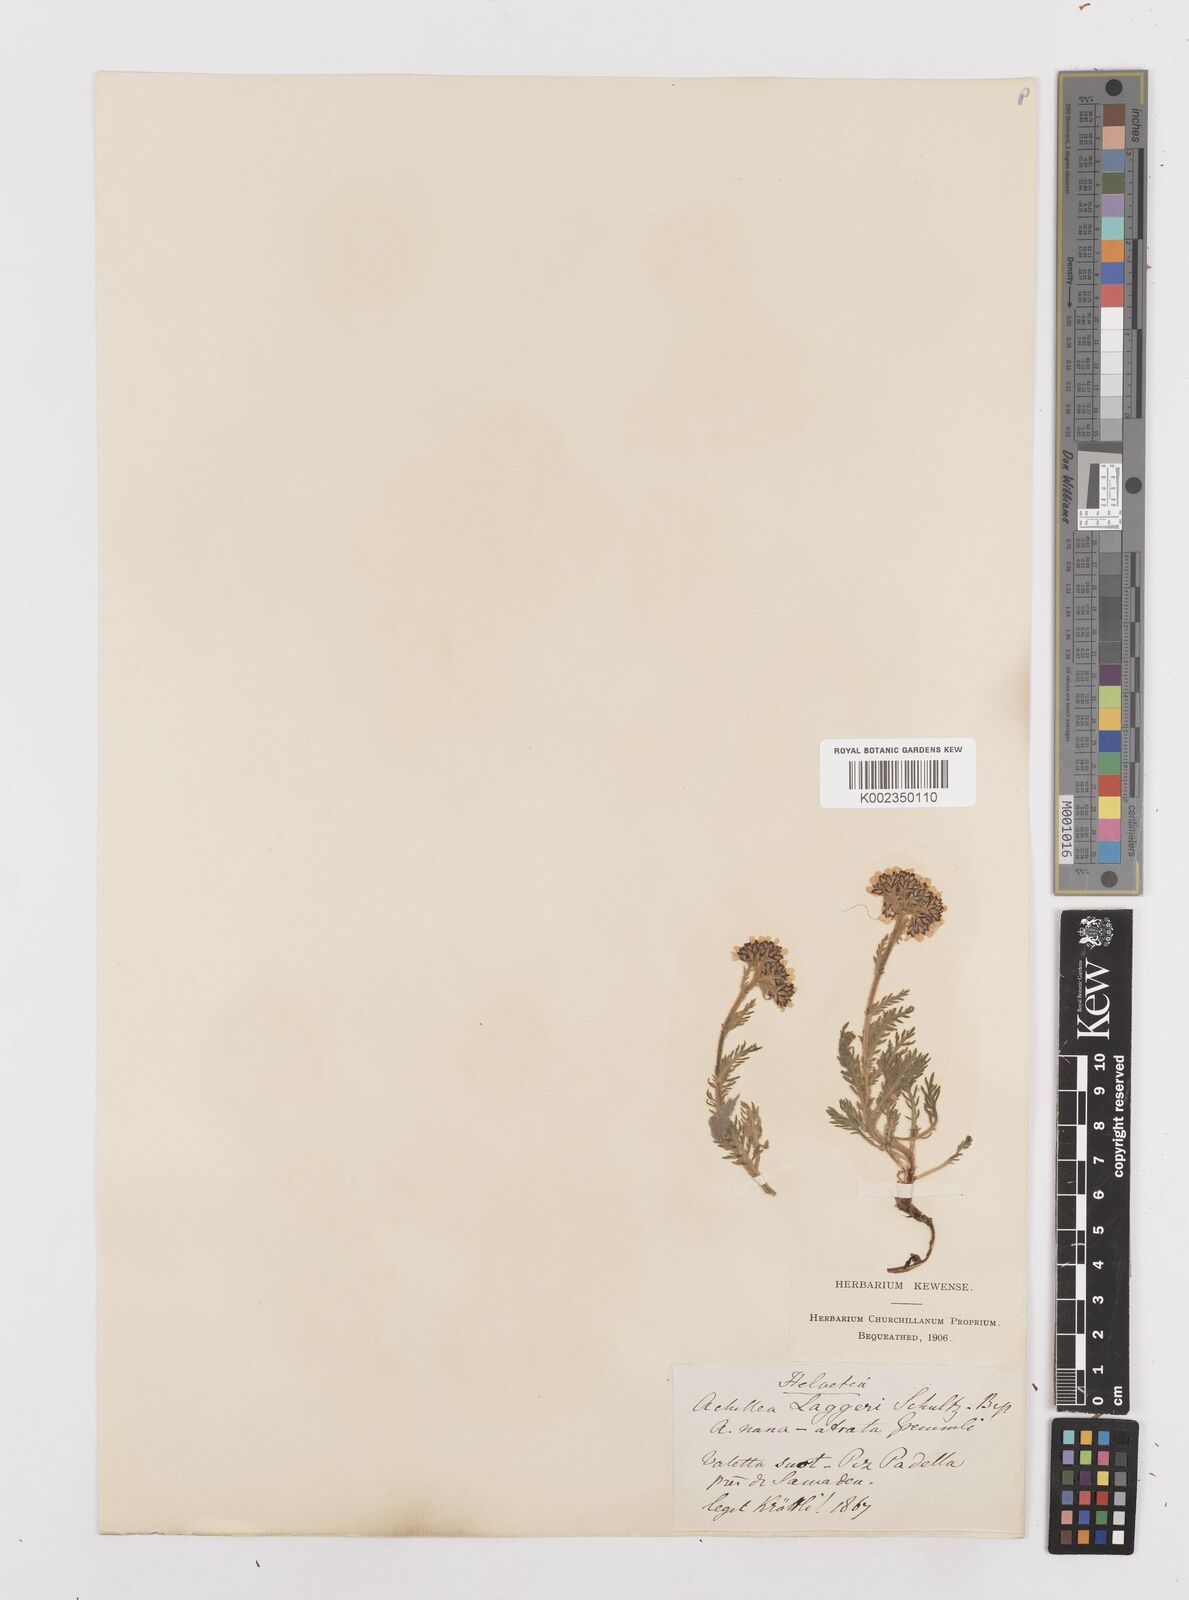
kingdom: Plantae
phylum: Tracheophyta
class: Magnoliopsida
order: Asterales
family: Asteraceae
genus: Achillea
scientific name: Achillea atrata
